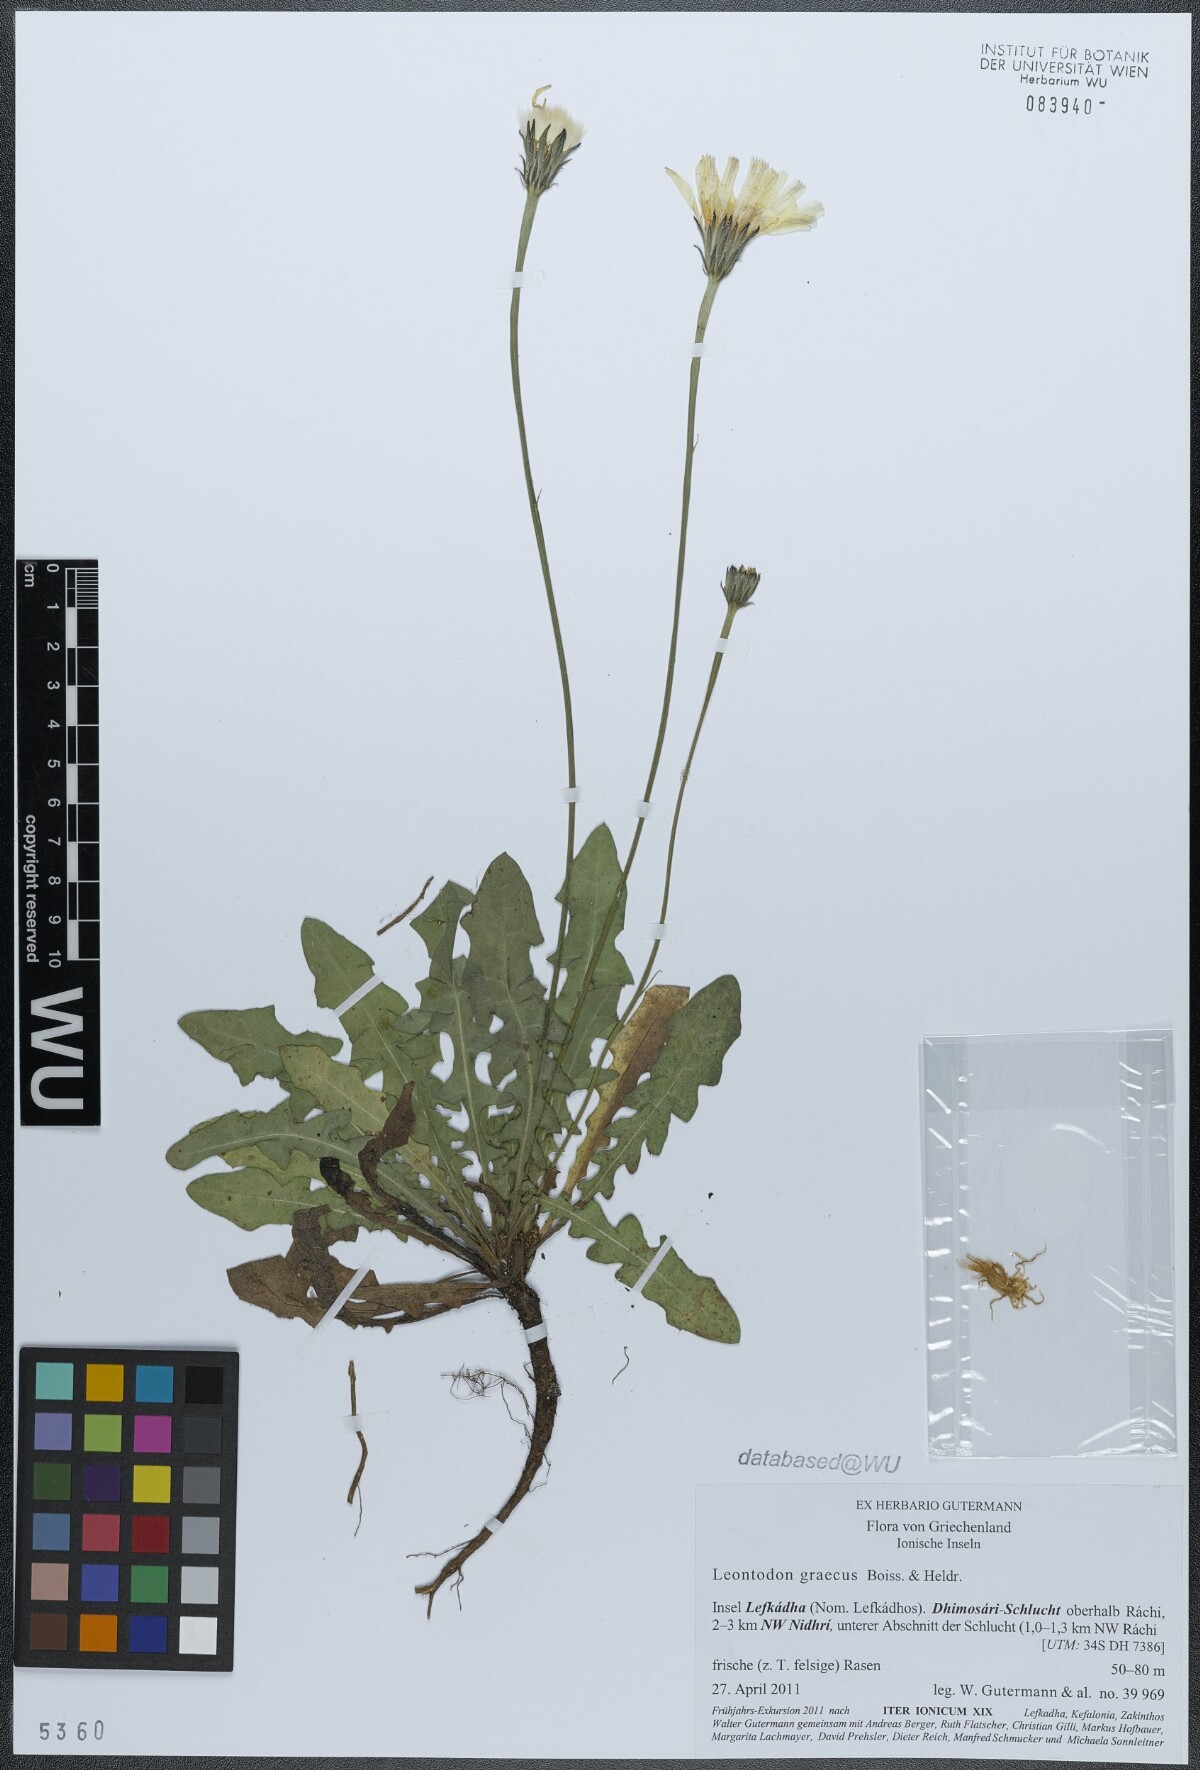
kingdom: Plantae
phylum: Tracheophyta
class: Magnoliopsida
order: Asterales
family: Asteraceae
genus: Leontodon
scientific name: Leontodon graecus
